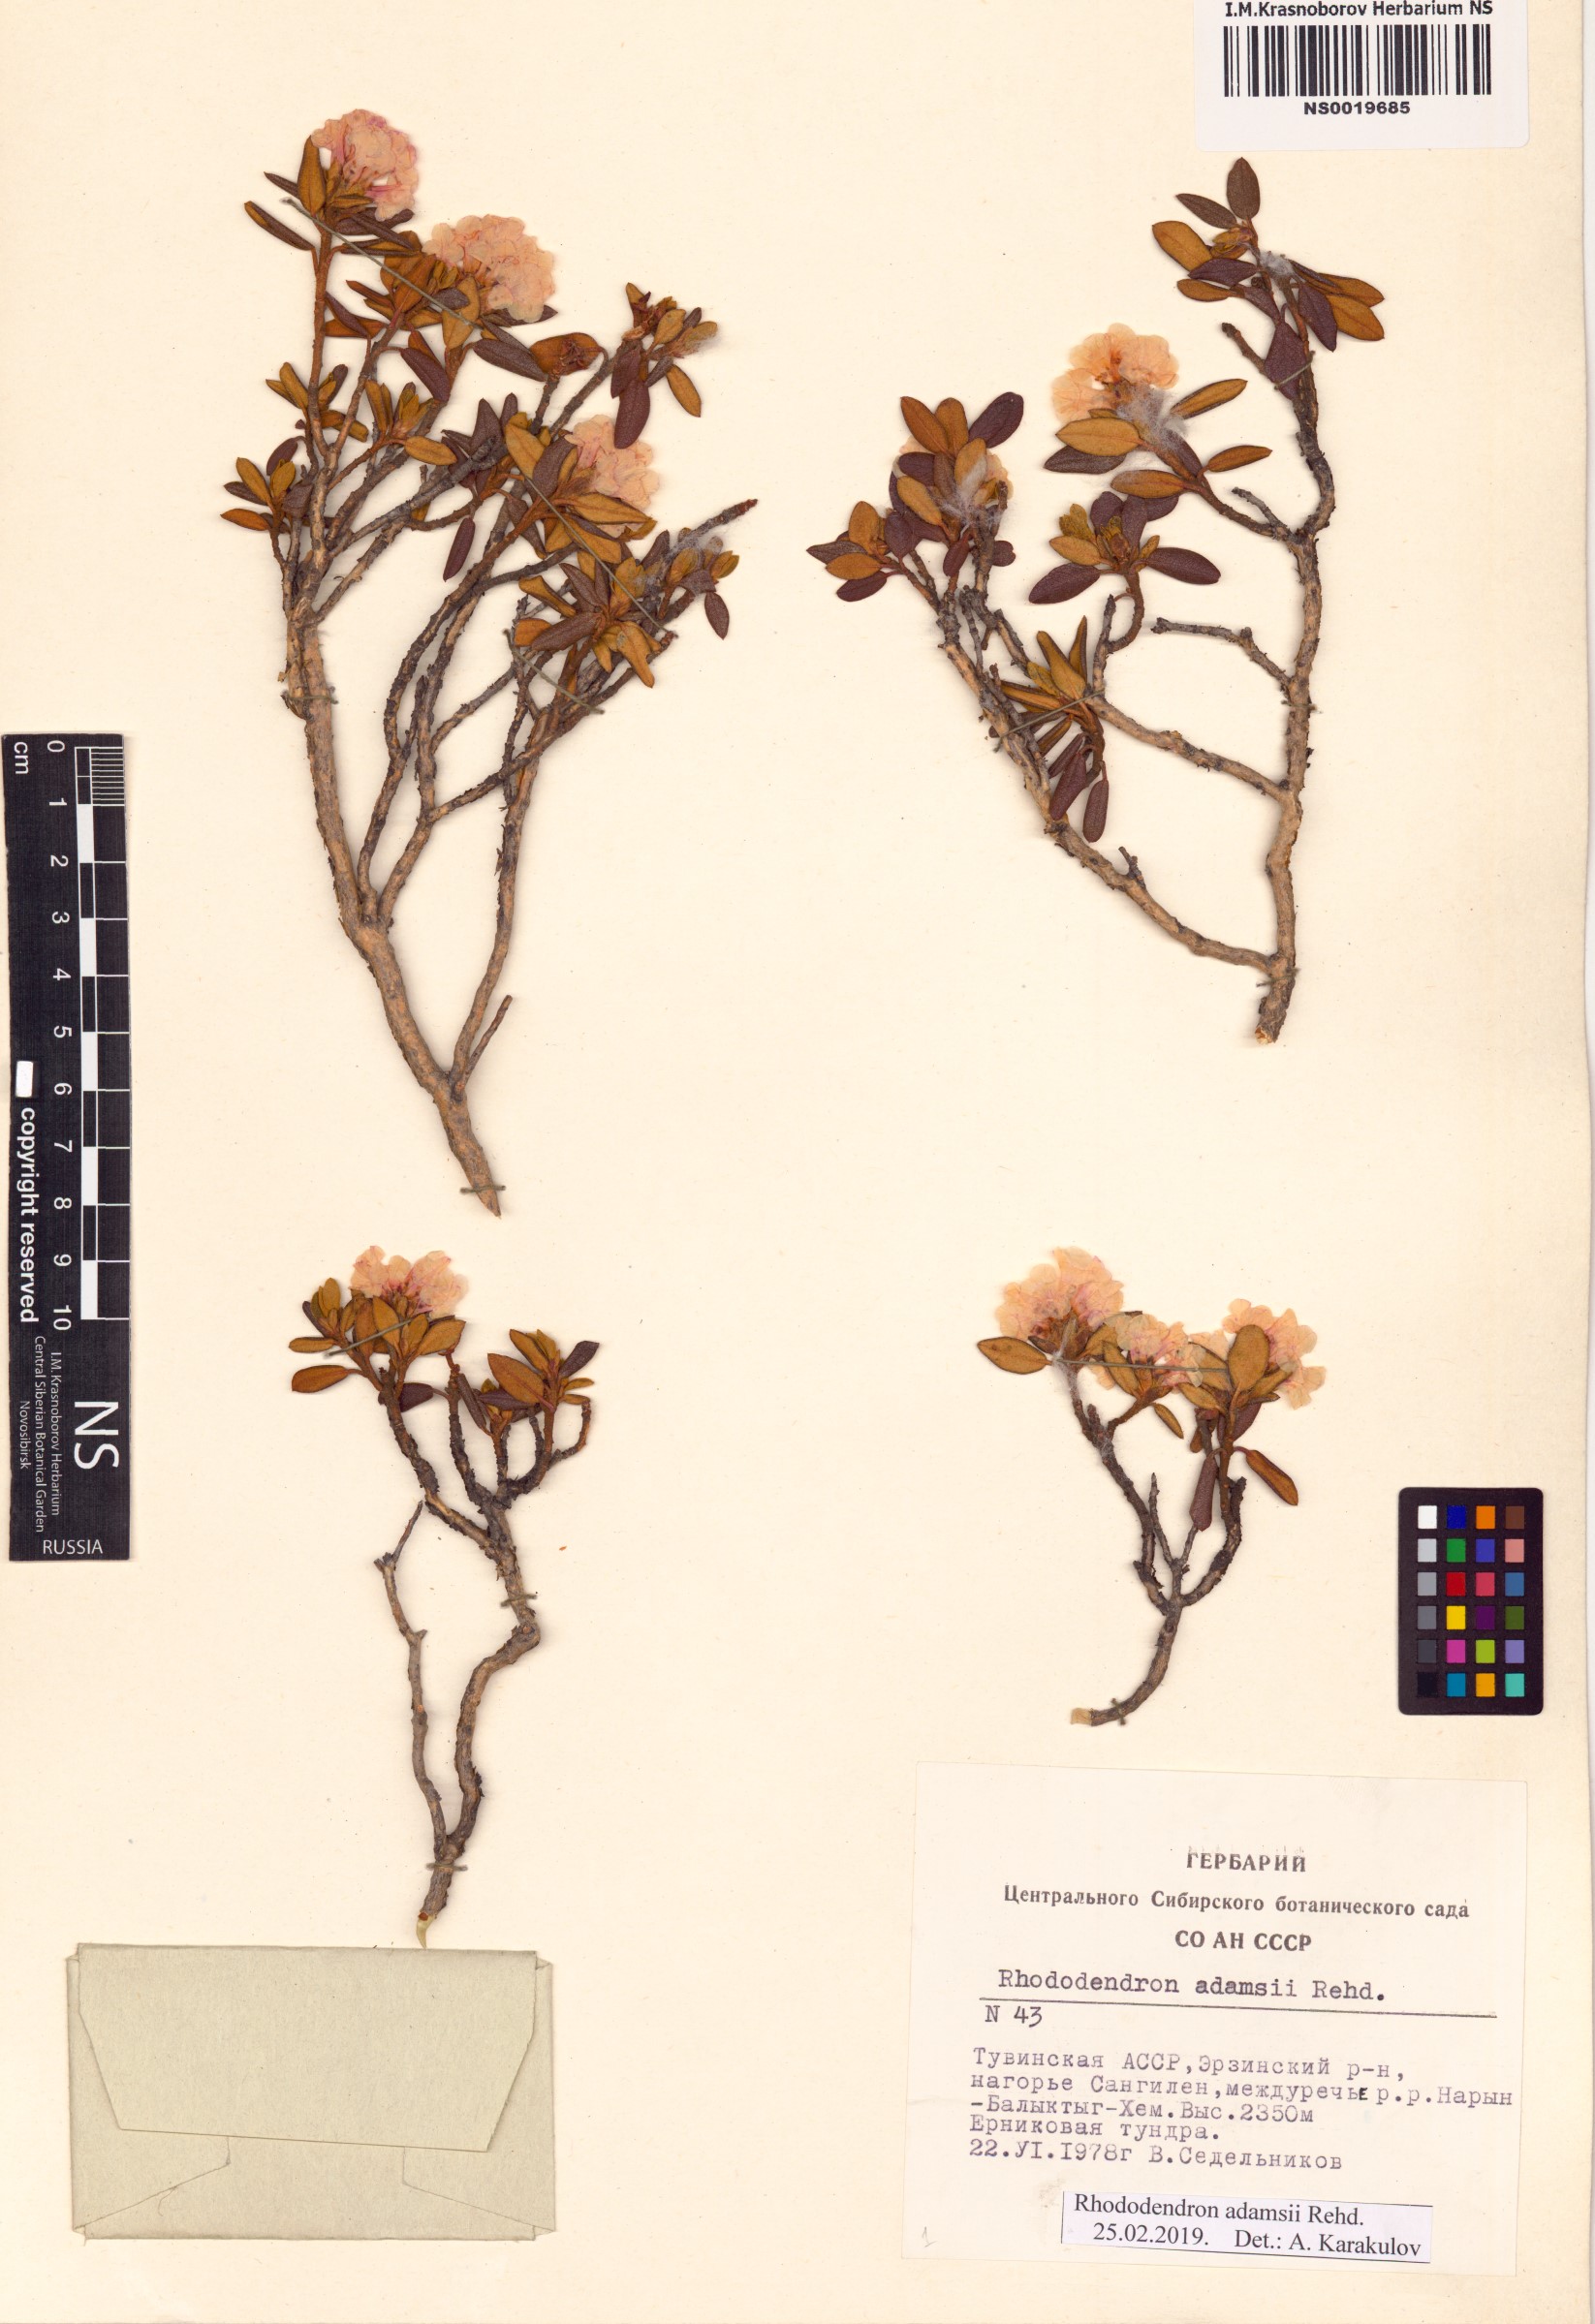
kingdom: Plantae
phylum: Tracheophyta
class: Magnoliopsida
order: Ericales
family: Ericaceae
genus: Rhododendron
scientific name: Rhododendron adamsii
